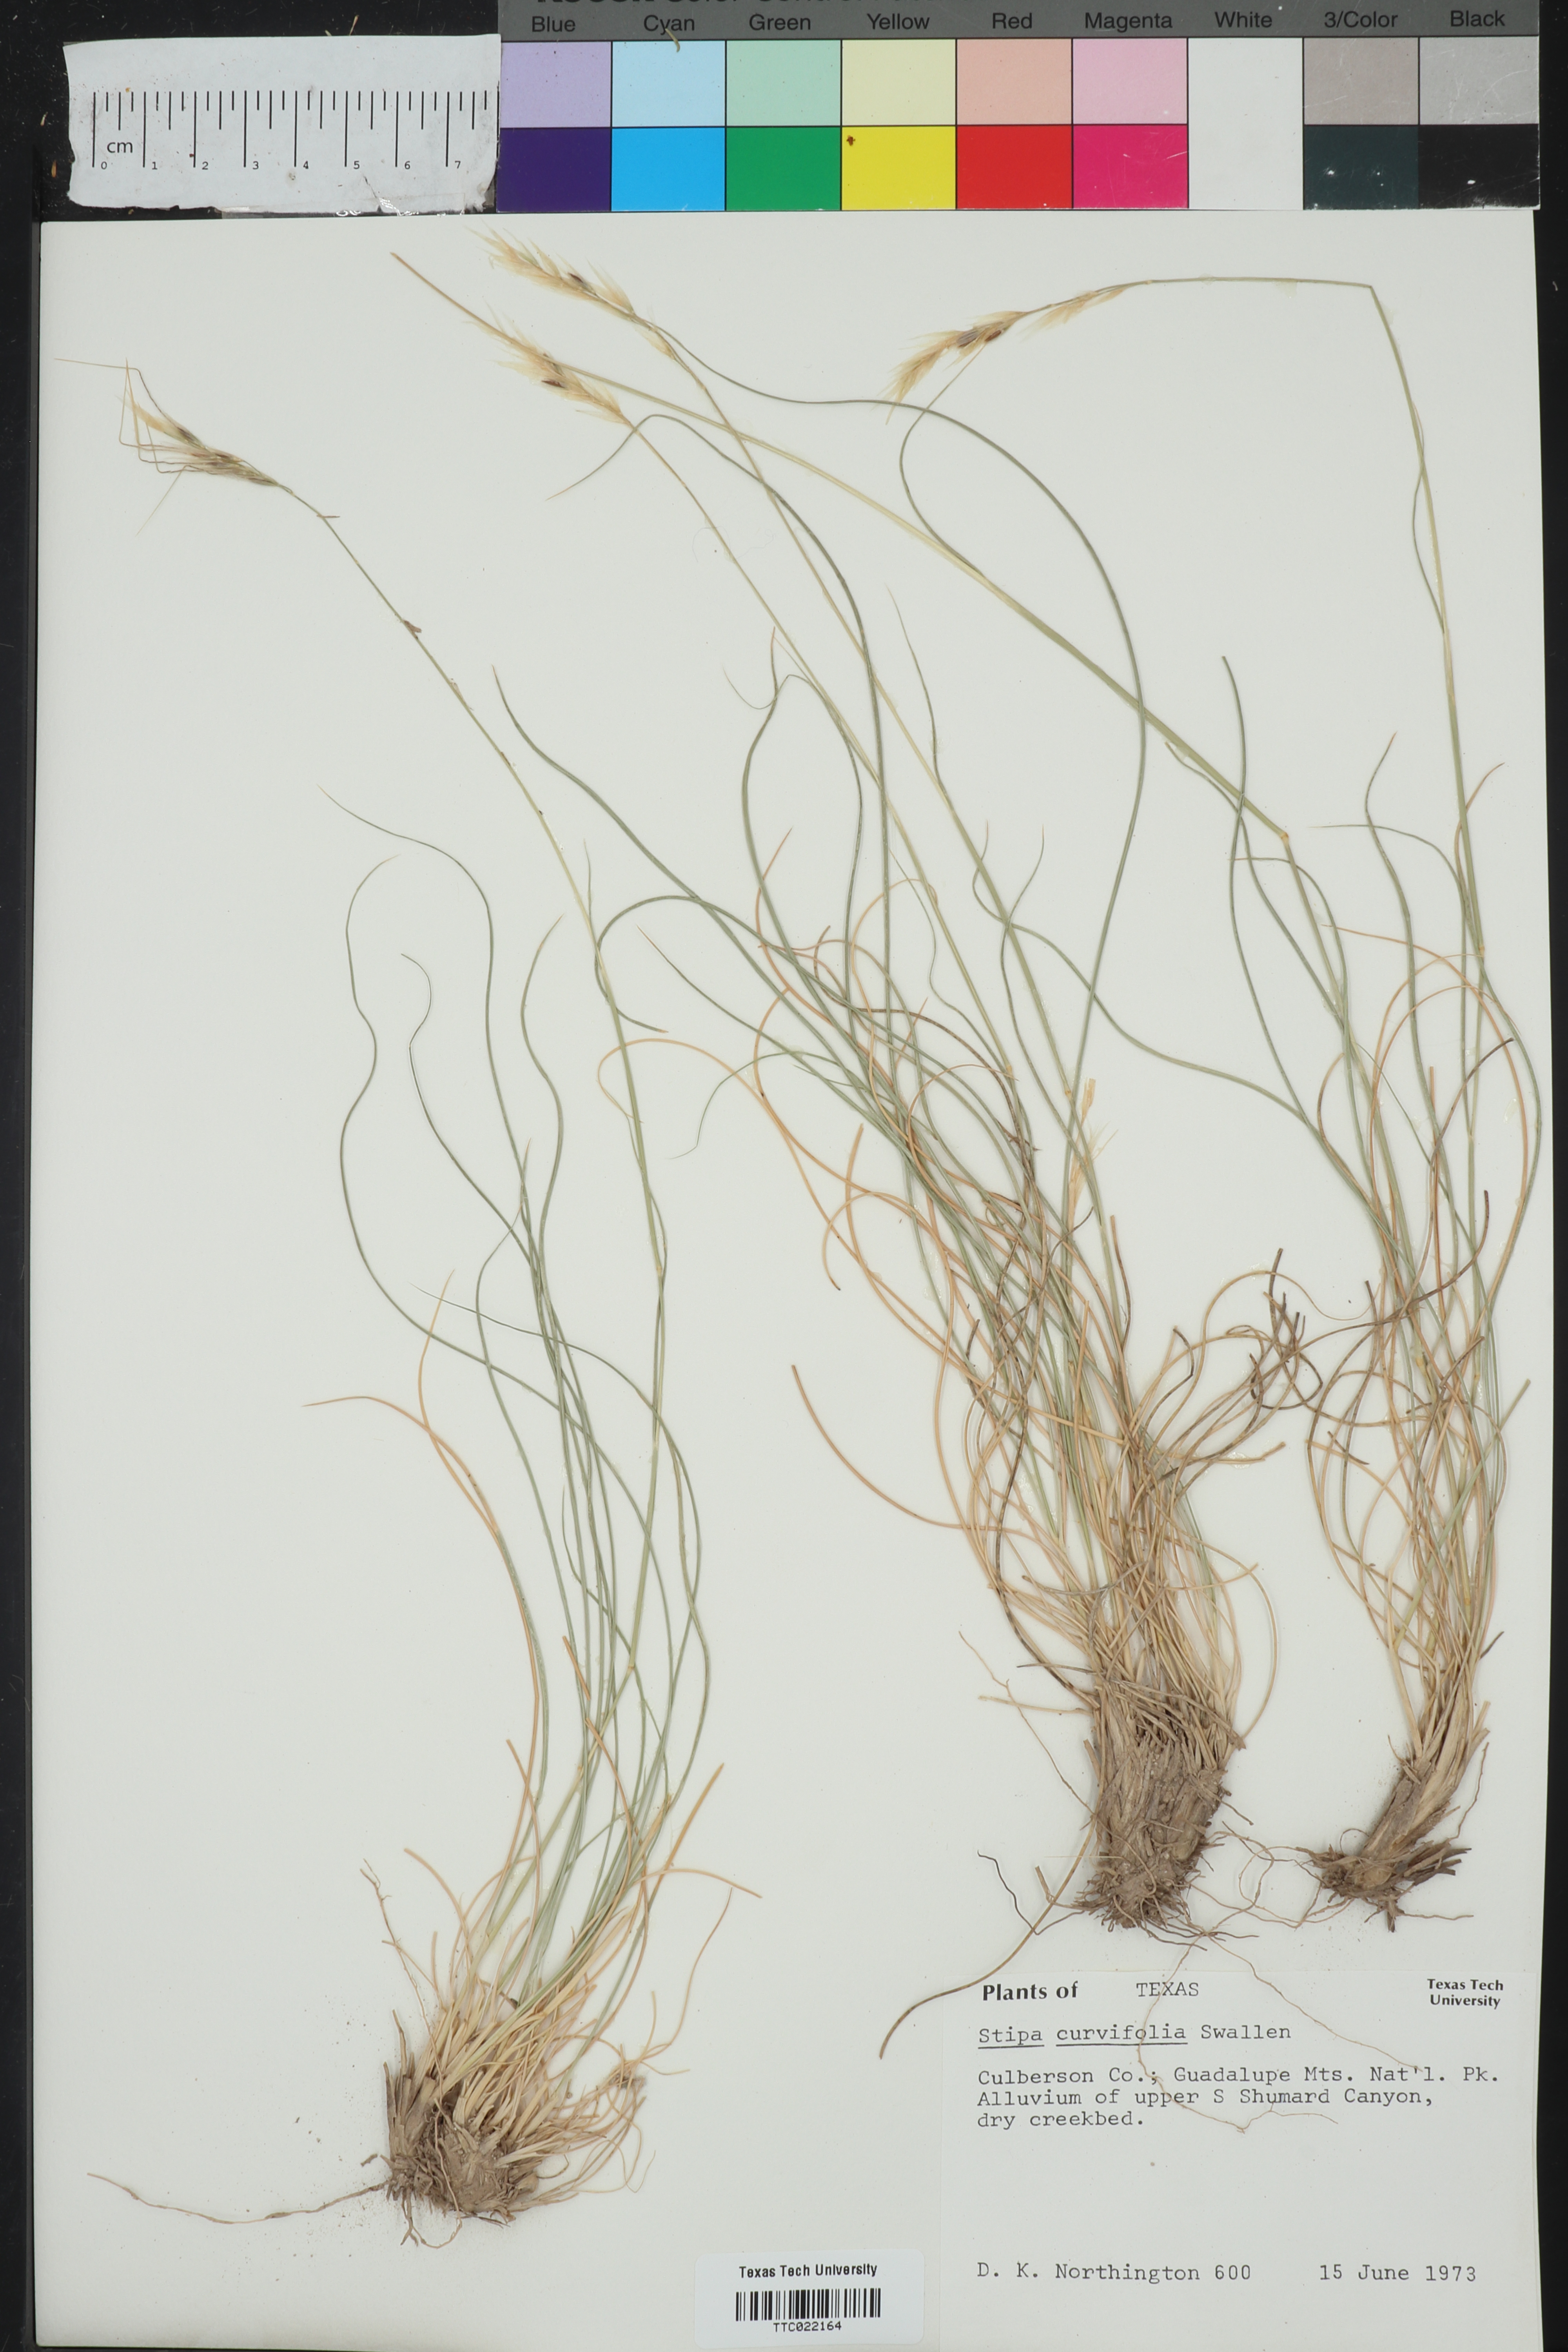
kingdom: Plantae
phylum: Tracheophyta
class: Liliopsida
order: Poales
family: Poaceae
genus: Eriocoma
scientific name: Eriocoma curvifolia
